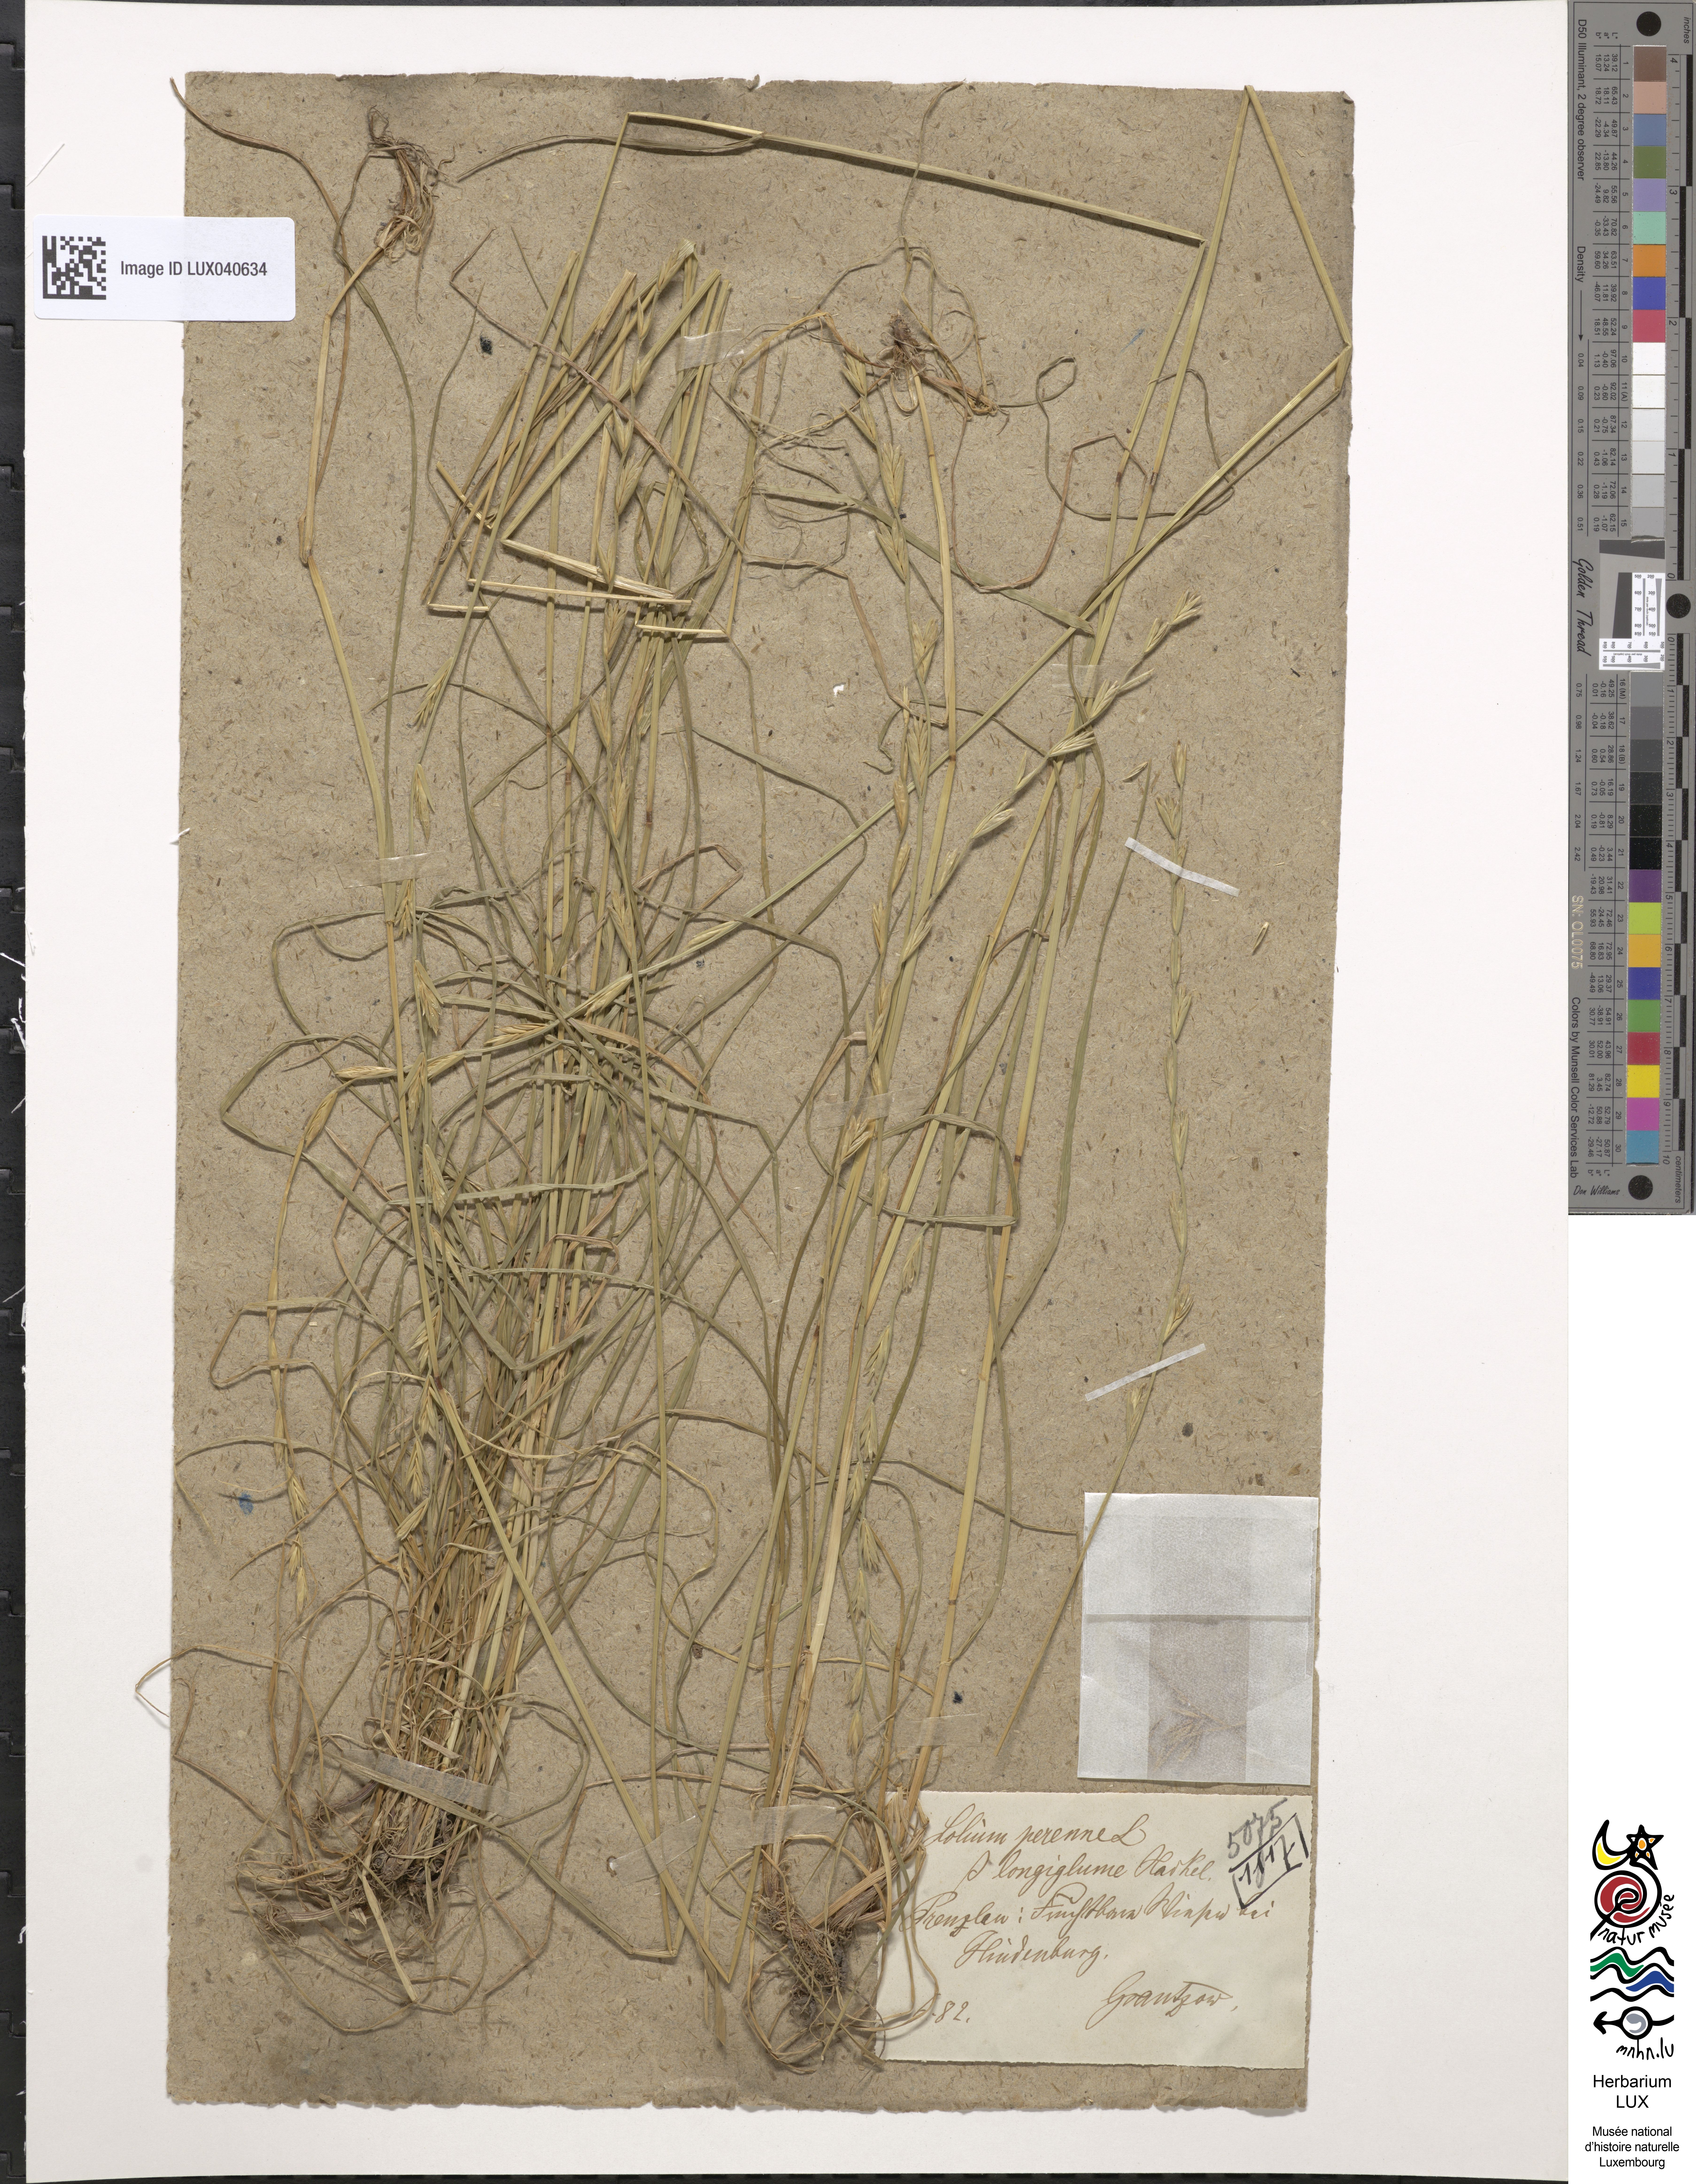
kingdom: Plantae
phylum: Tracheophyta
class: Liliopsida
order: Poales
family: Poaceae
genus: Lolium
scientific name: Lolium perenne
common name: Perennial ryegrass
